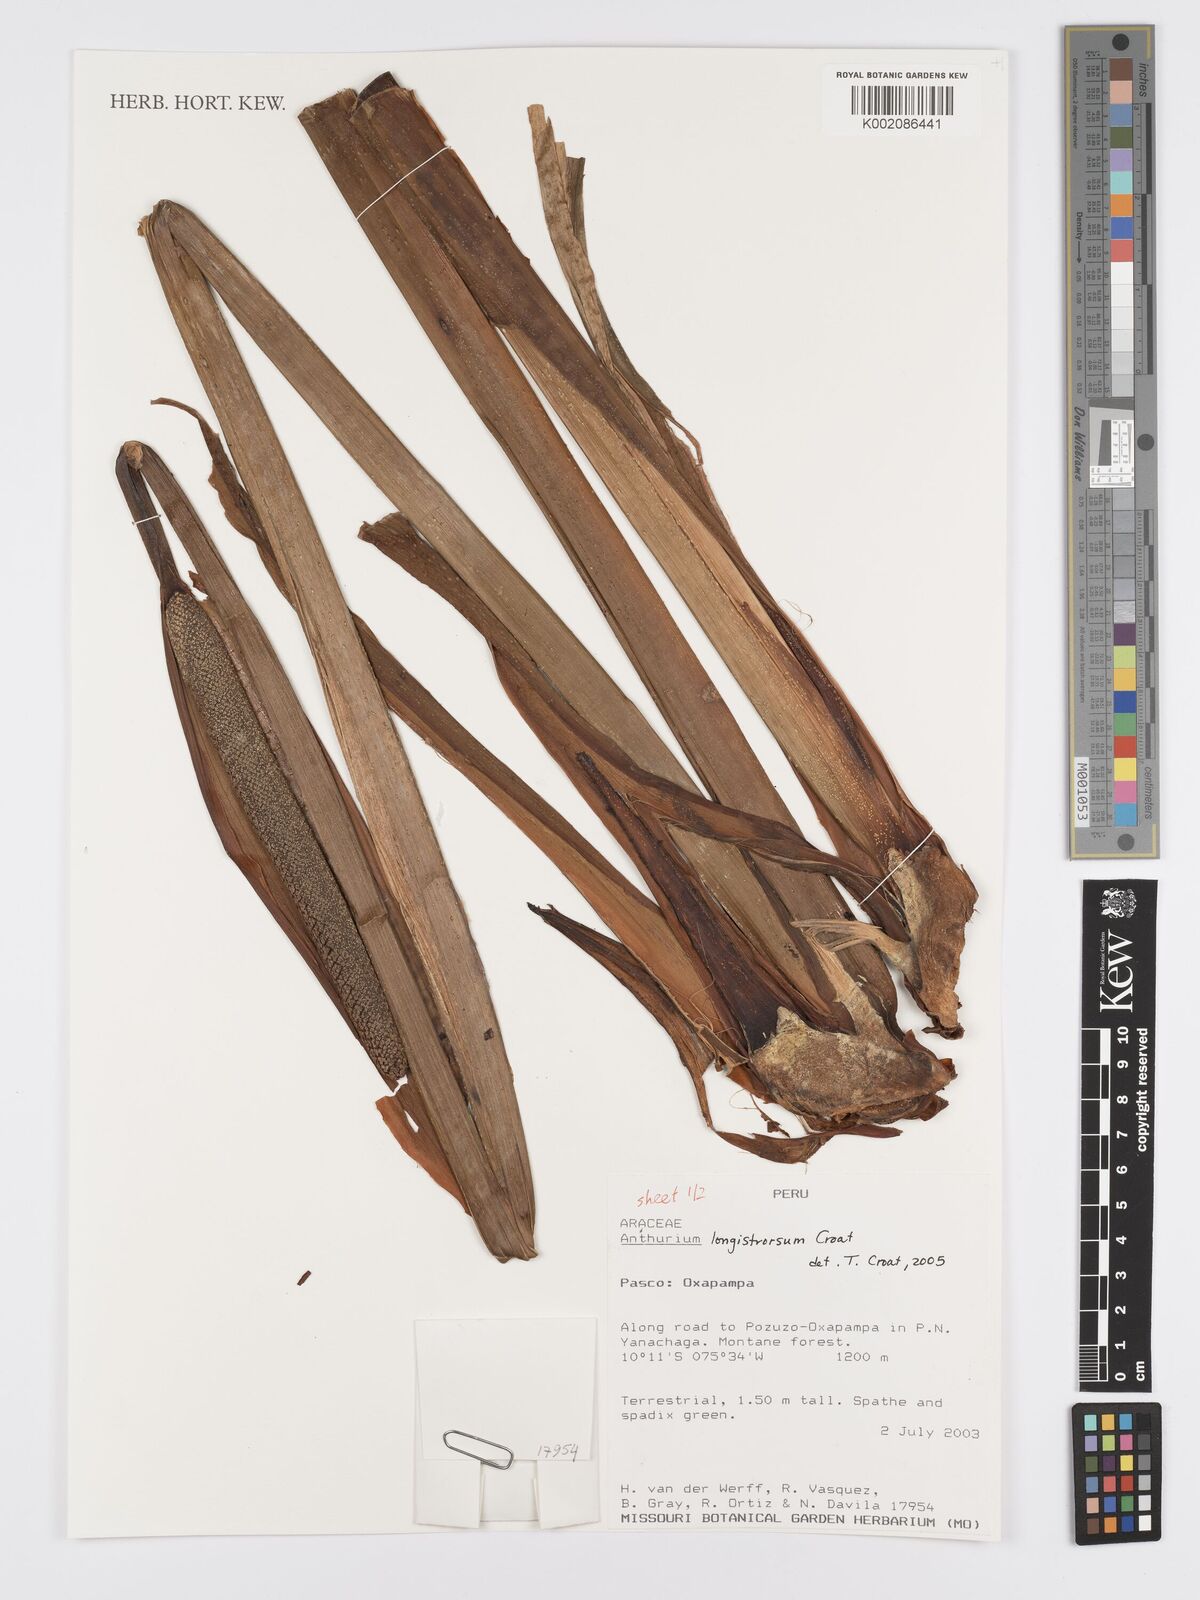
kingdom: Plantae
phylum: Tracheophyta
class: Liliopsida
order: Alismatales
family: Araceae
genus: Anthurium
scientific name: Anthurium
